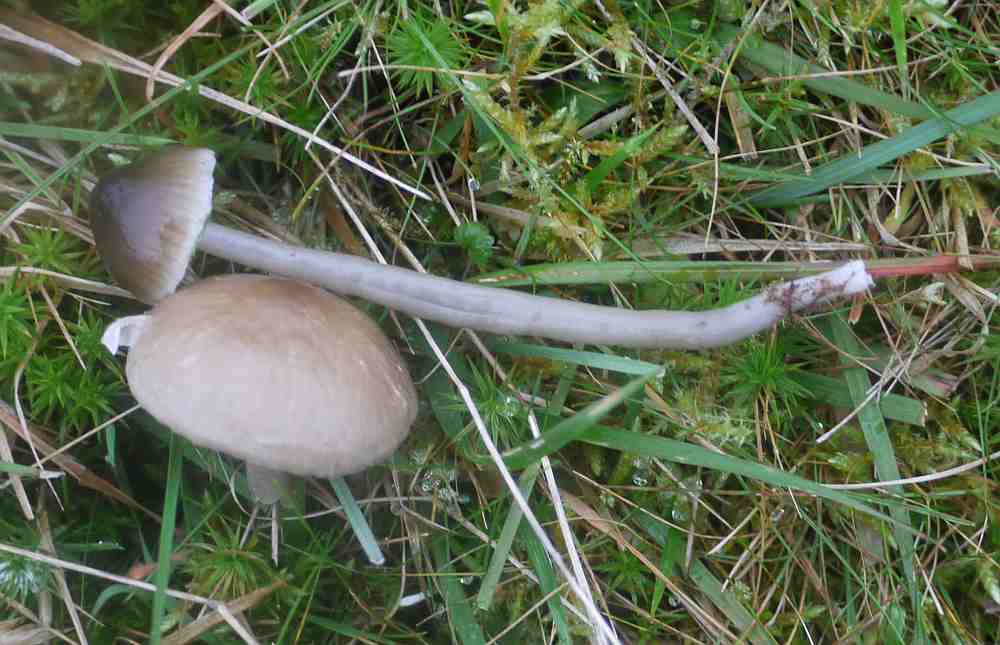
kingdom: Fungi
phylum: Basidiomycota
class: Agaricomycetes
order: Agaricales
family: Hygrophoraceae
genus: Gliophorus
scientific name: Gliophorus irrigatus
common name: slimet vokshat
